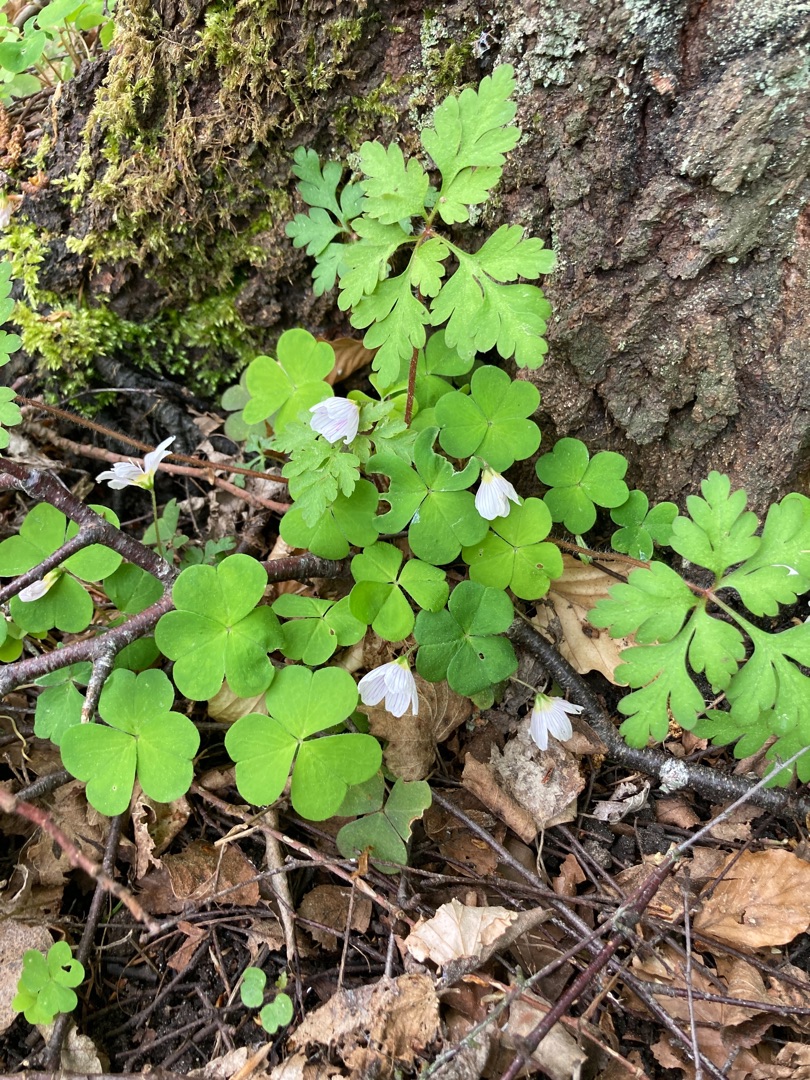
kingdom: Plantae
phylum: Tracheophyta
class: Magnoliopsida
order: Oxalidales
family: Oxalidaceae
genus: Oxalis
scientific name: Oxalis acetosella
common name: Skovsyre
